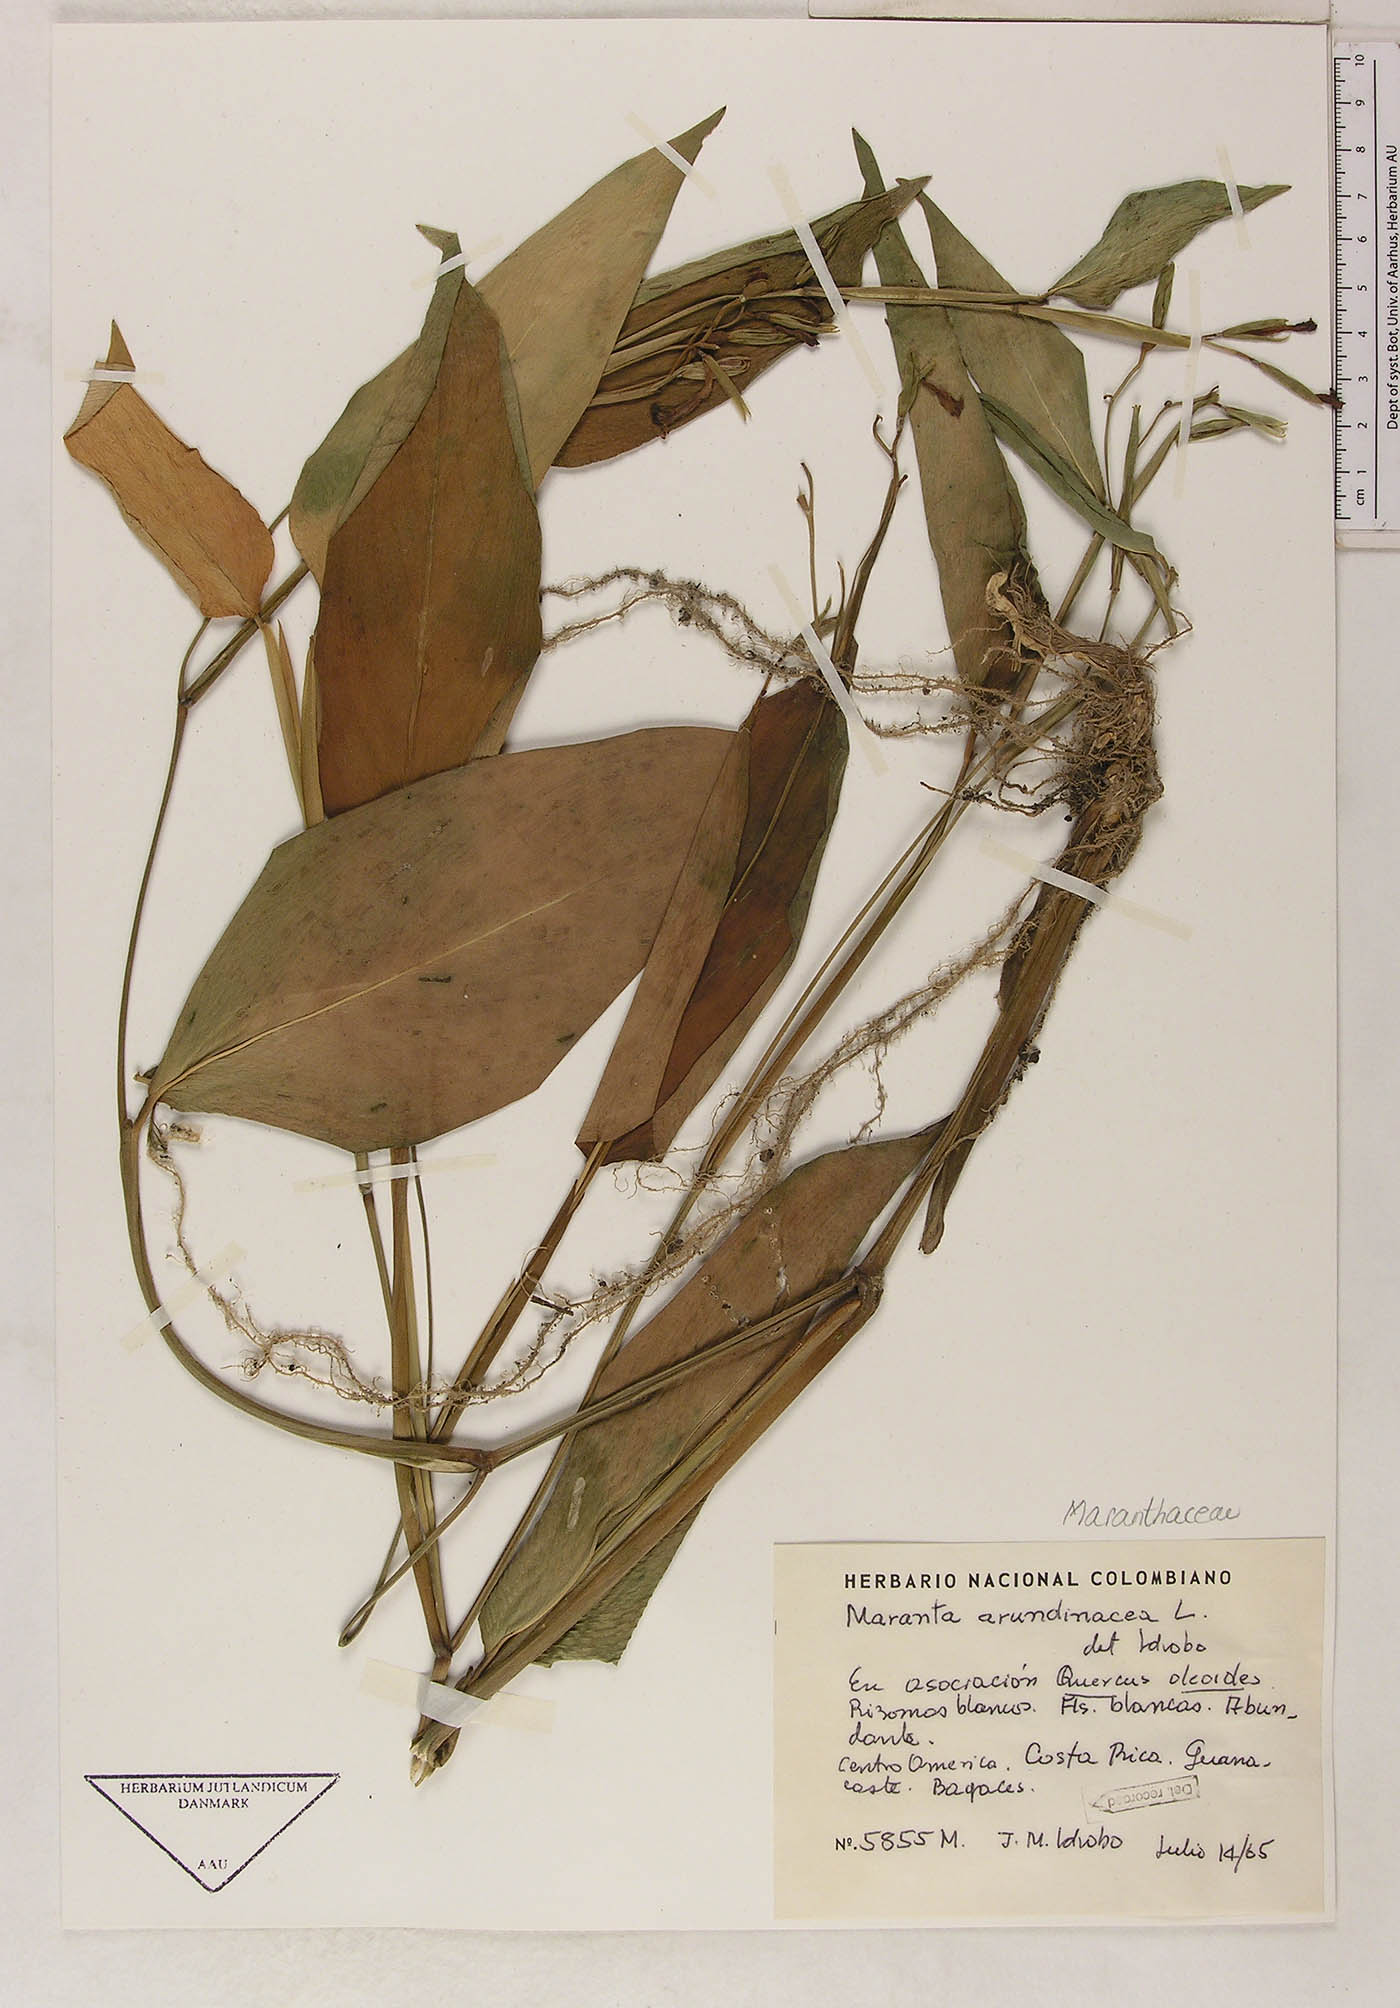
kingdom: Plantae
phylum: Tracheophyta
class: Liliopsida
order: Zingiberales
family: Marantaceae
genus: Maranta
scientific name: Maranta arundinacea
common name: Arrowroot
